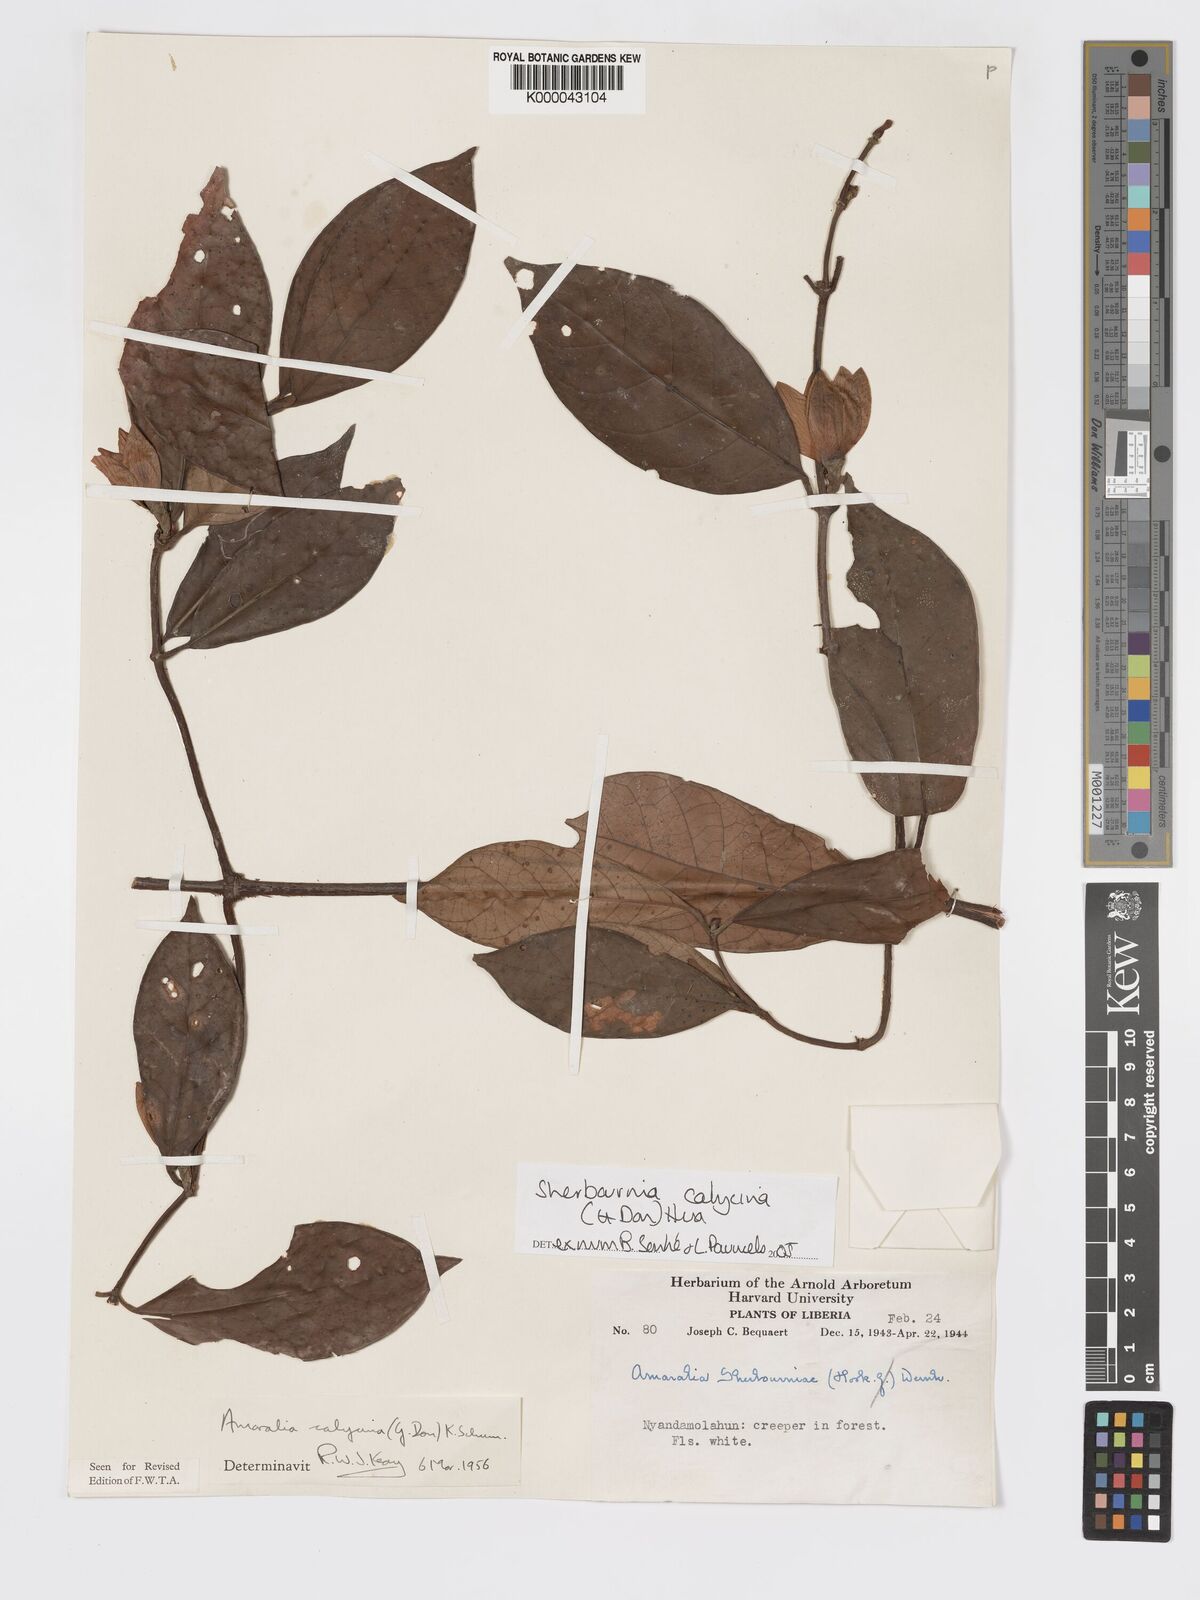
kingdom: Plantae
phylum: Tracheophyta
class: Magnoliopsida
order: Gentianales
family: Rubiaceae
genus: Sherbournia
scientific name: Sherbournia calycina
